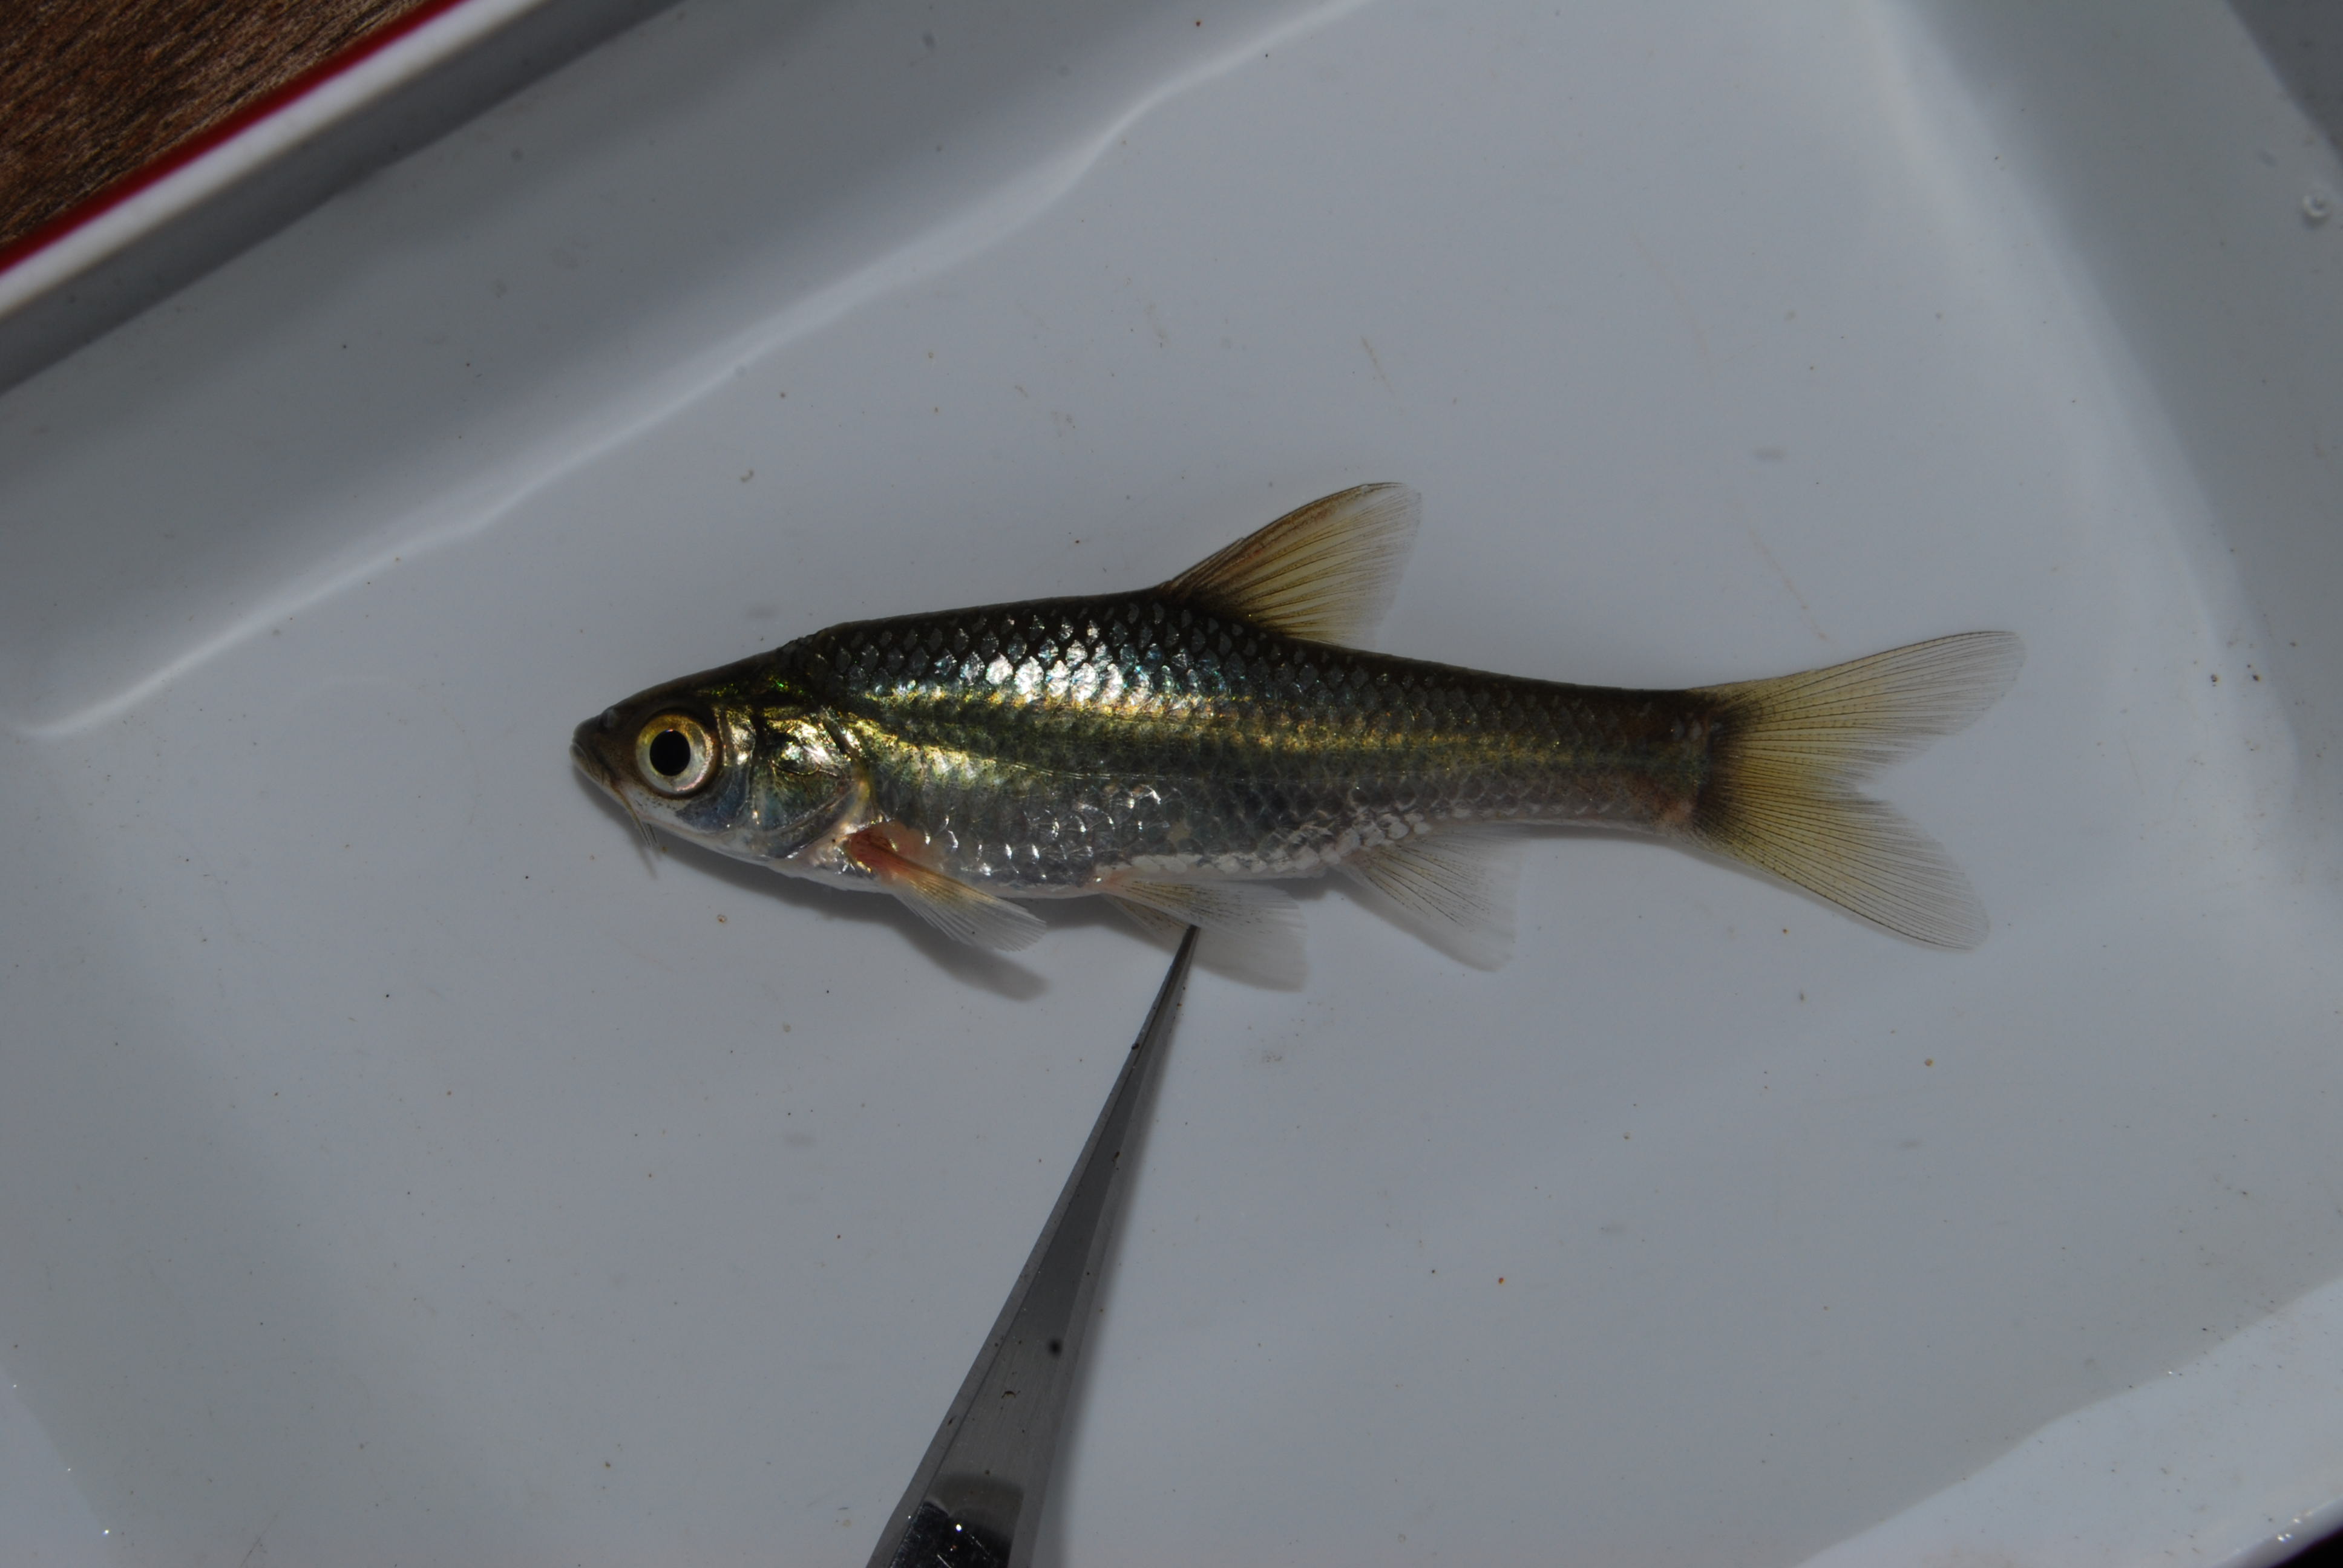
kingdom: Animalia
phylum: Chordata
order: Cypriniformes
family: Cyprinidae
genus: Enteromius
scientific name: Enteromius paludinosus
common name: Straightfin barb
